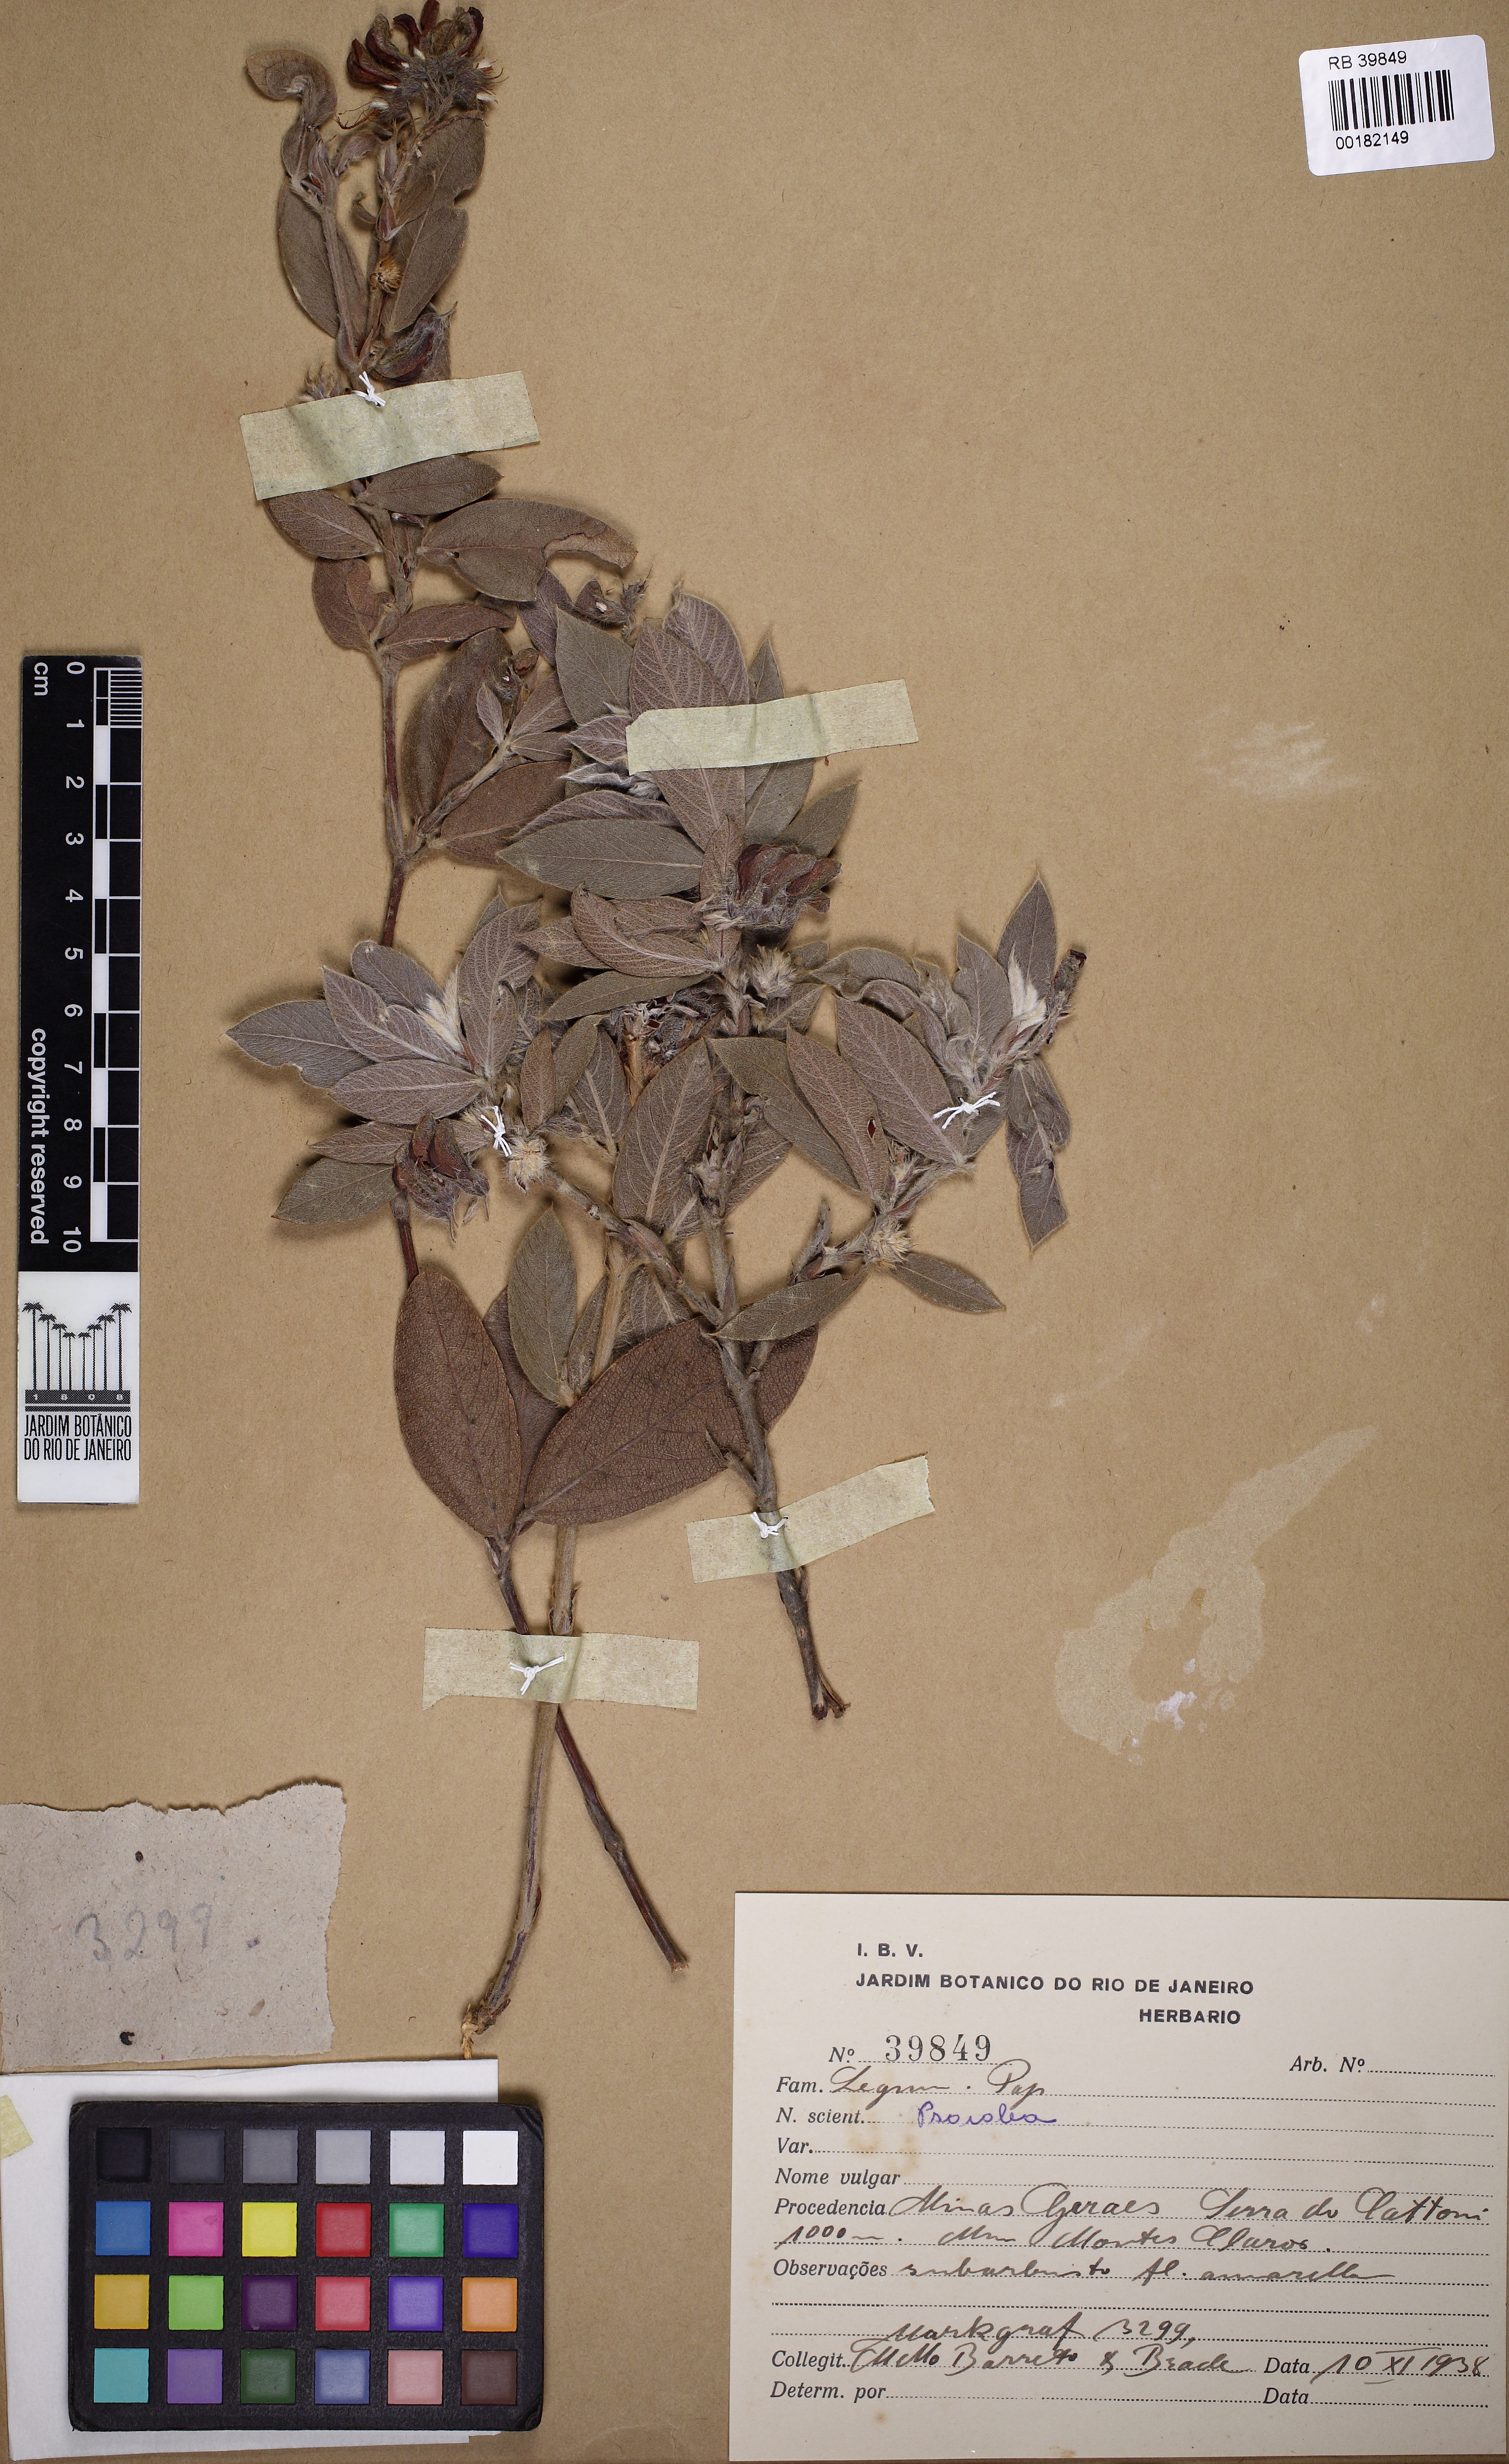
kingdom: Plantae
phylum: Tracheophyta
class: Magnoliopsida
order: Fabales
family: Fabaceae
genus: Psoralea
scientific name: Psoralea
